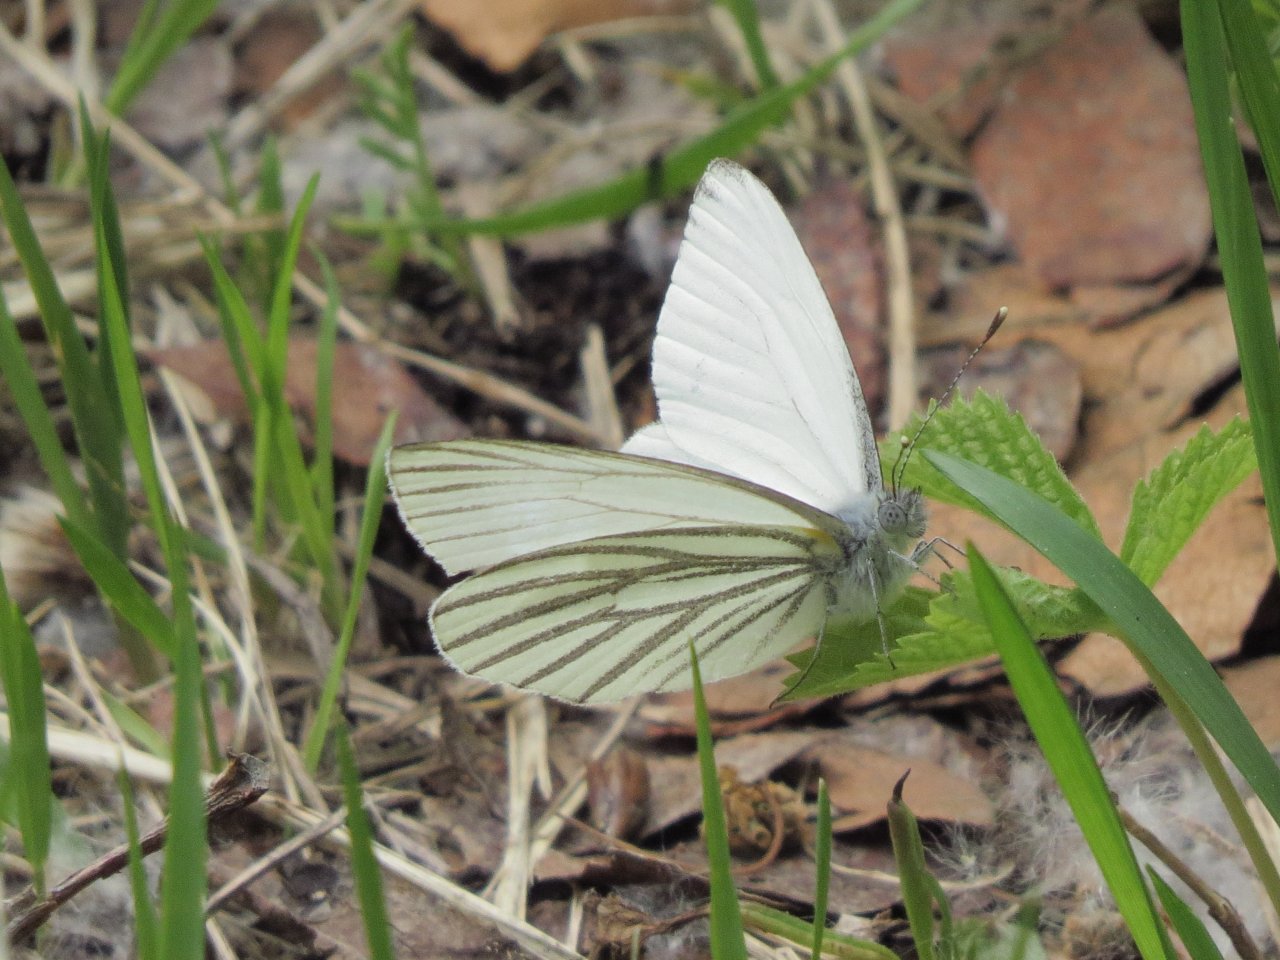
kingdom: Animalia
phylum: Arthropoda
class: Insecta
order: Lepidoptera
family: Pieridae
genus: Pieris
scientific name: Pieris oleracea
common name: Mustard White
